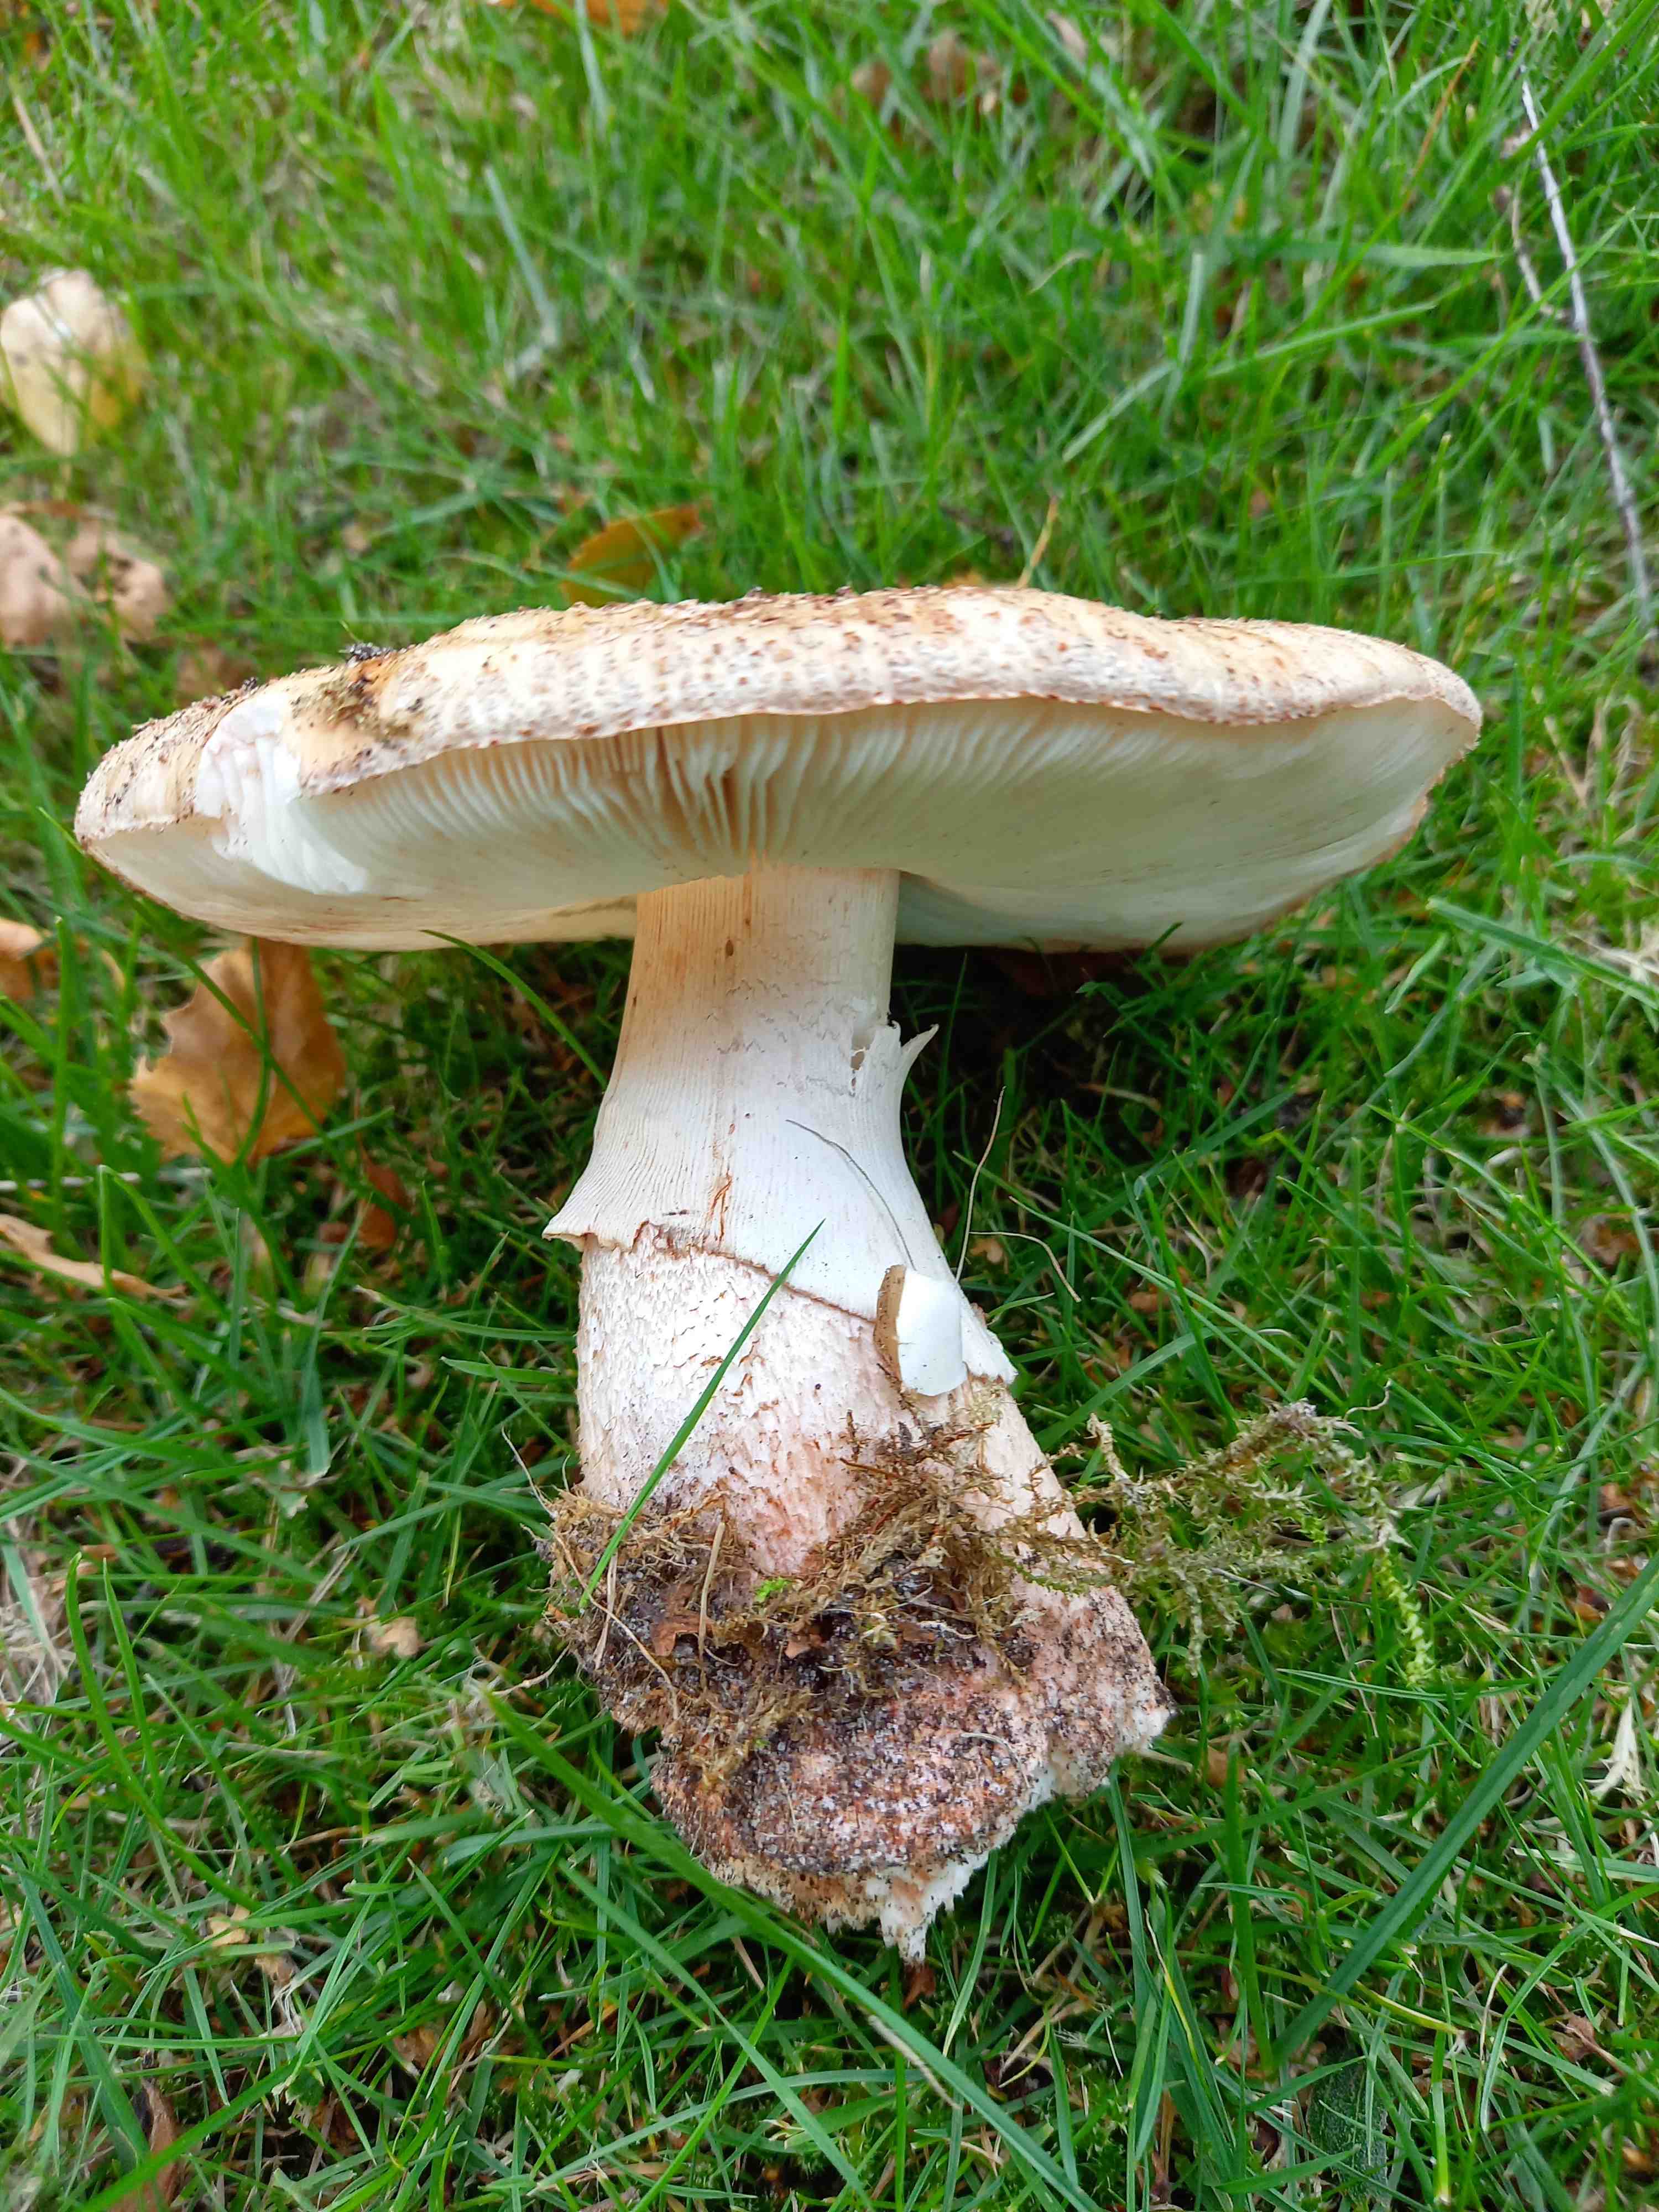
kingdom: Fungi
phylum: Basidiomycota
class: Agaricomycetes
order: Agaricales
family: Amanitaceae
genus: Amanita
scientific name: Amanita rubescens
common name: rødmende fluesvamp
